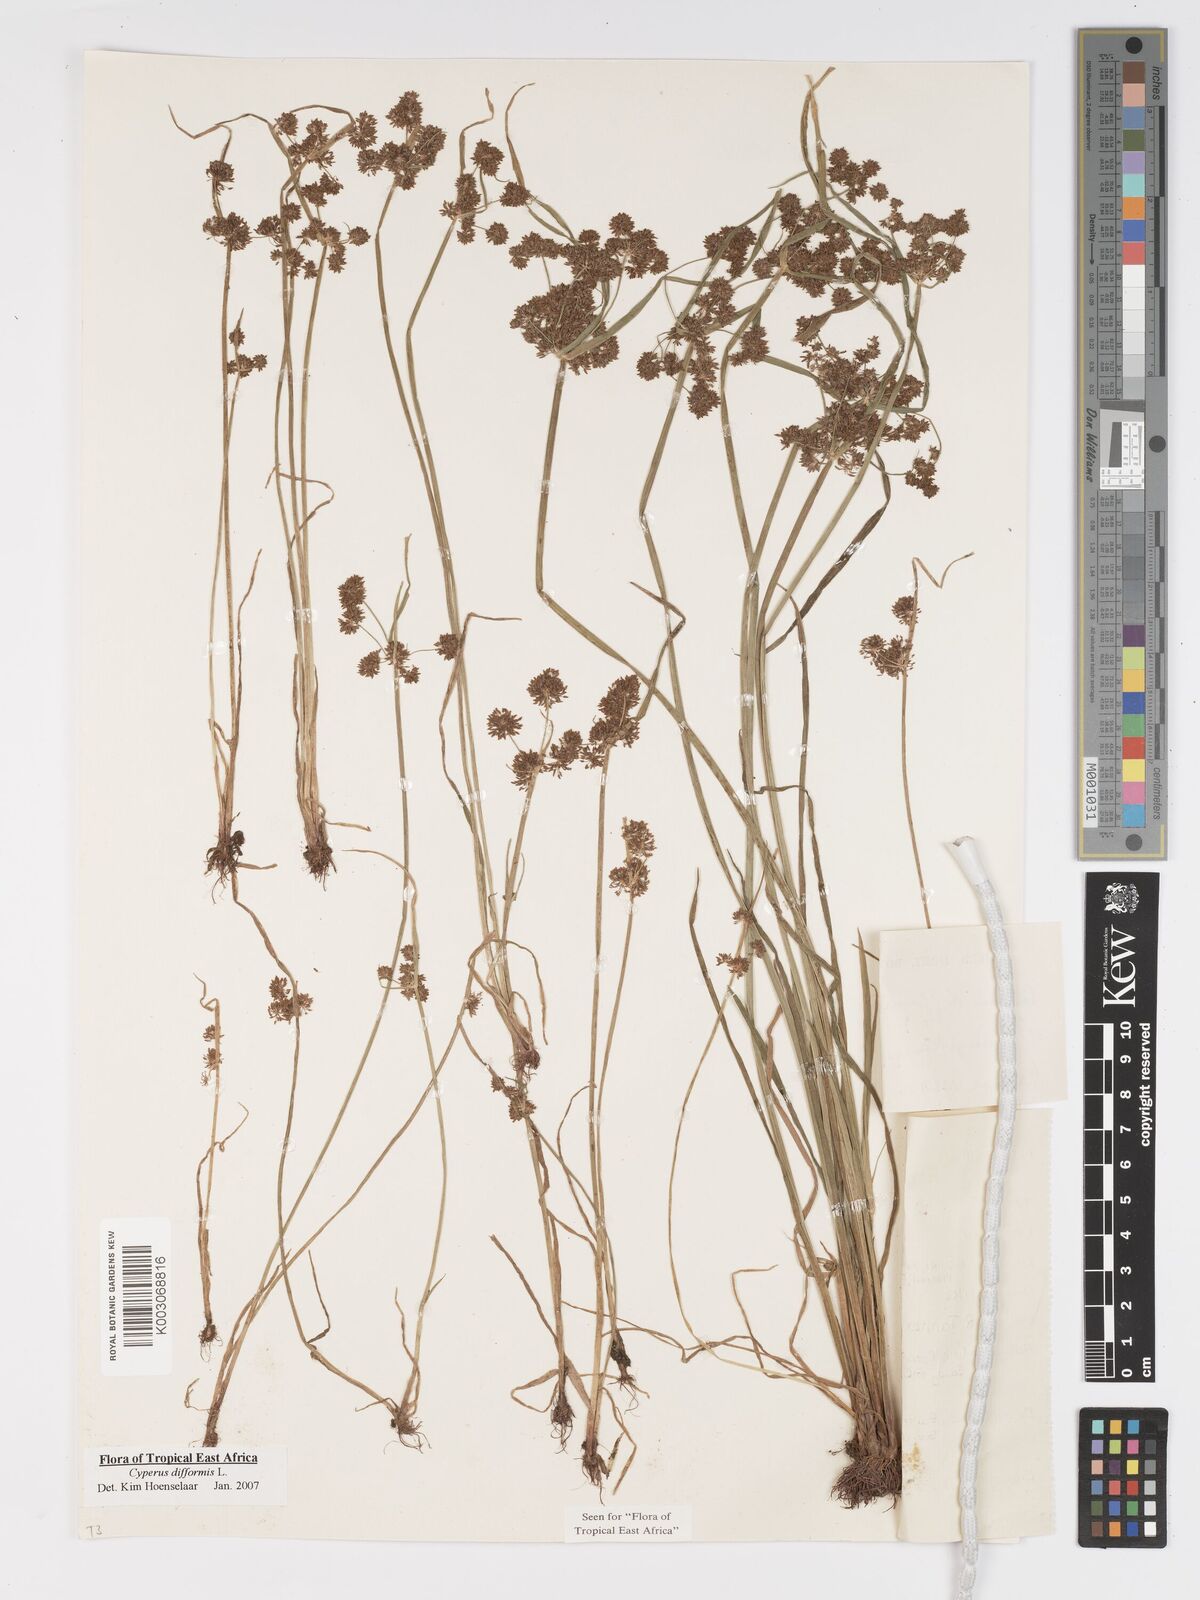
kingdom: Plantae
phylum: Tracheophyta
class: Liliopsida
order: Poales
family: Cyperaceae
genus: Cyperus
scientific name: Cyperus difformis
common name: Variable flatsedge
